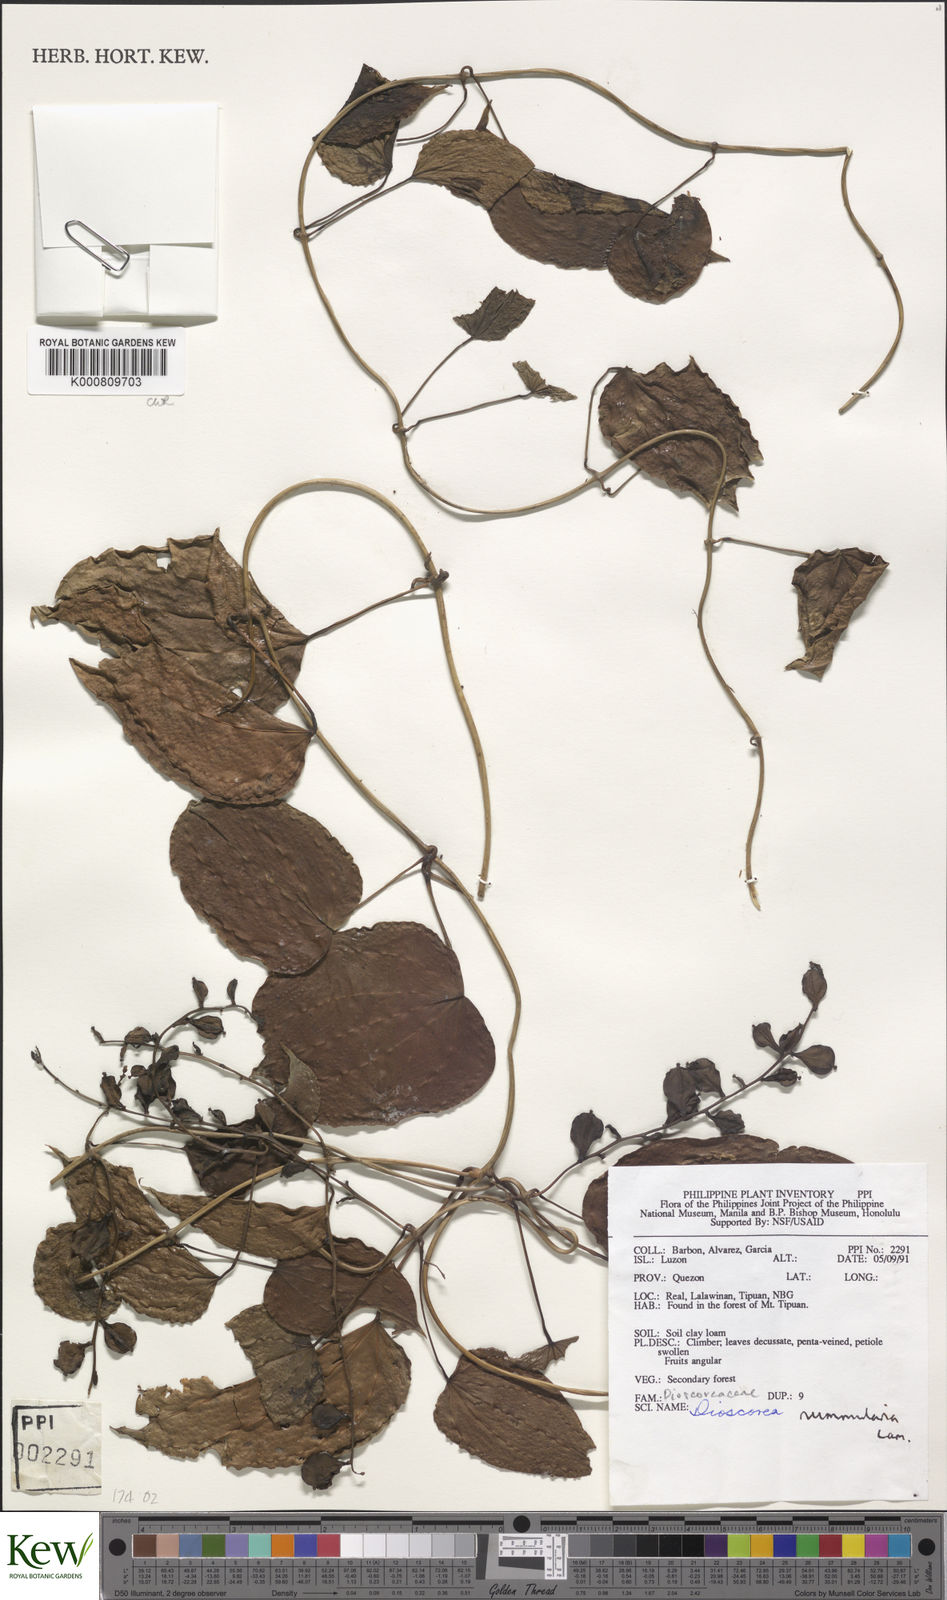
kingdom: Plantae
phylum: Tracheophyta
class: Liliopsida
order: Dioscoreales
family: Dioscoreaceae
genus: Dioscorea
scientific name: Dioscorea nummularia
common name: Pacific yam
